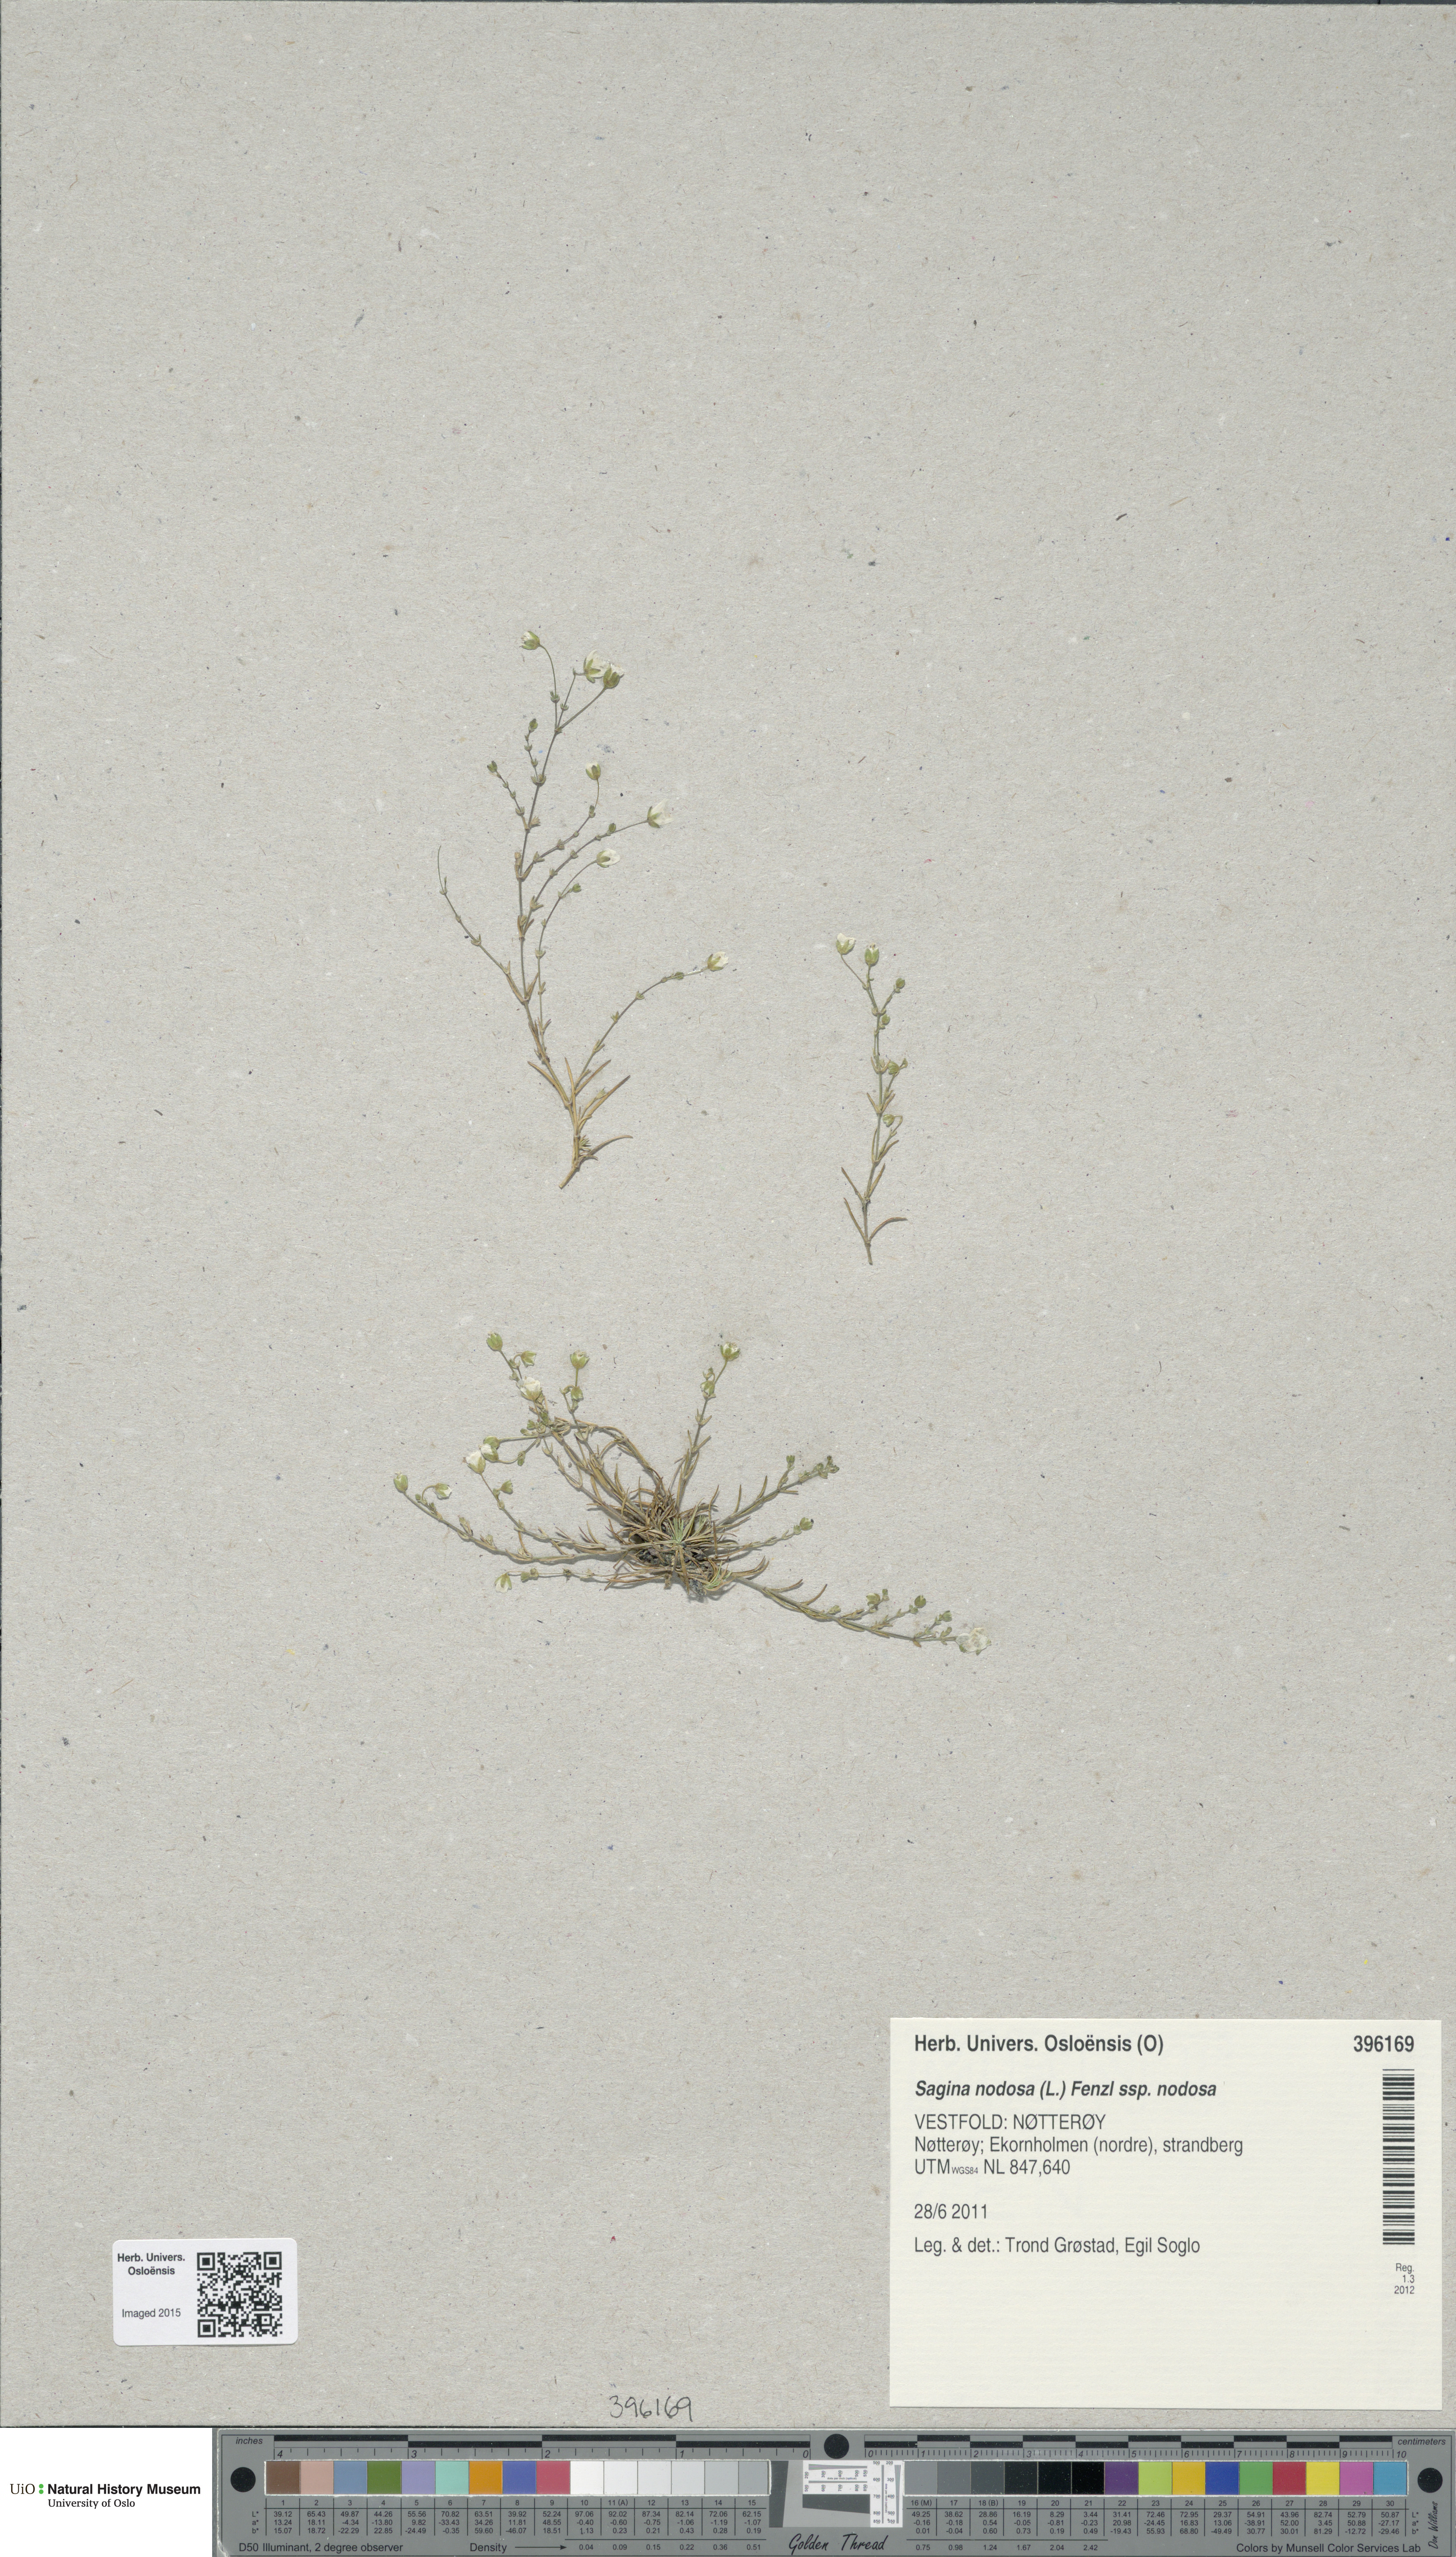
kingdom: Plantae
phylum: Tracheophyta
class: Magnoliopsida
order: Caryophyllales
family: Caryophyllaceae
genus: Sagina
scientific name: Sagina nodosa
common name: Knotted pearlwort
